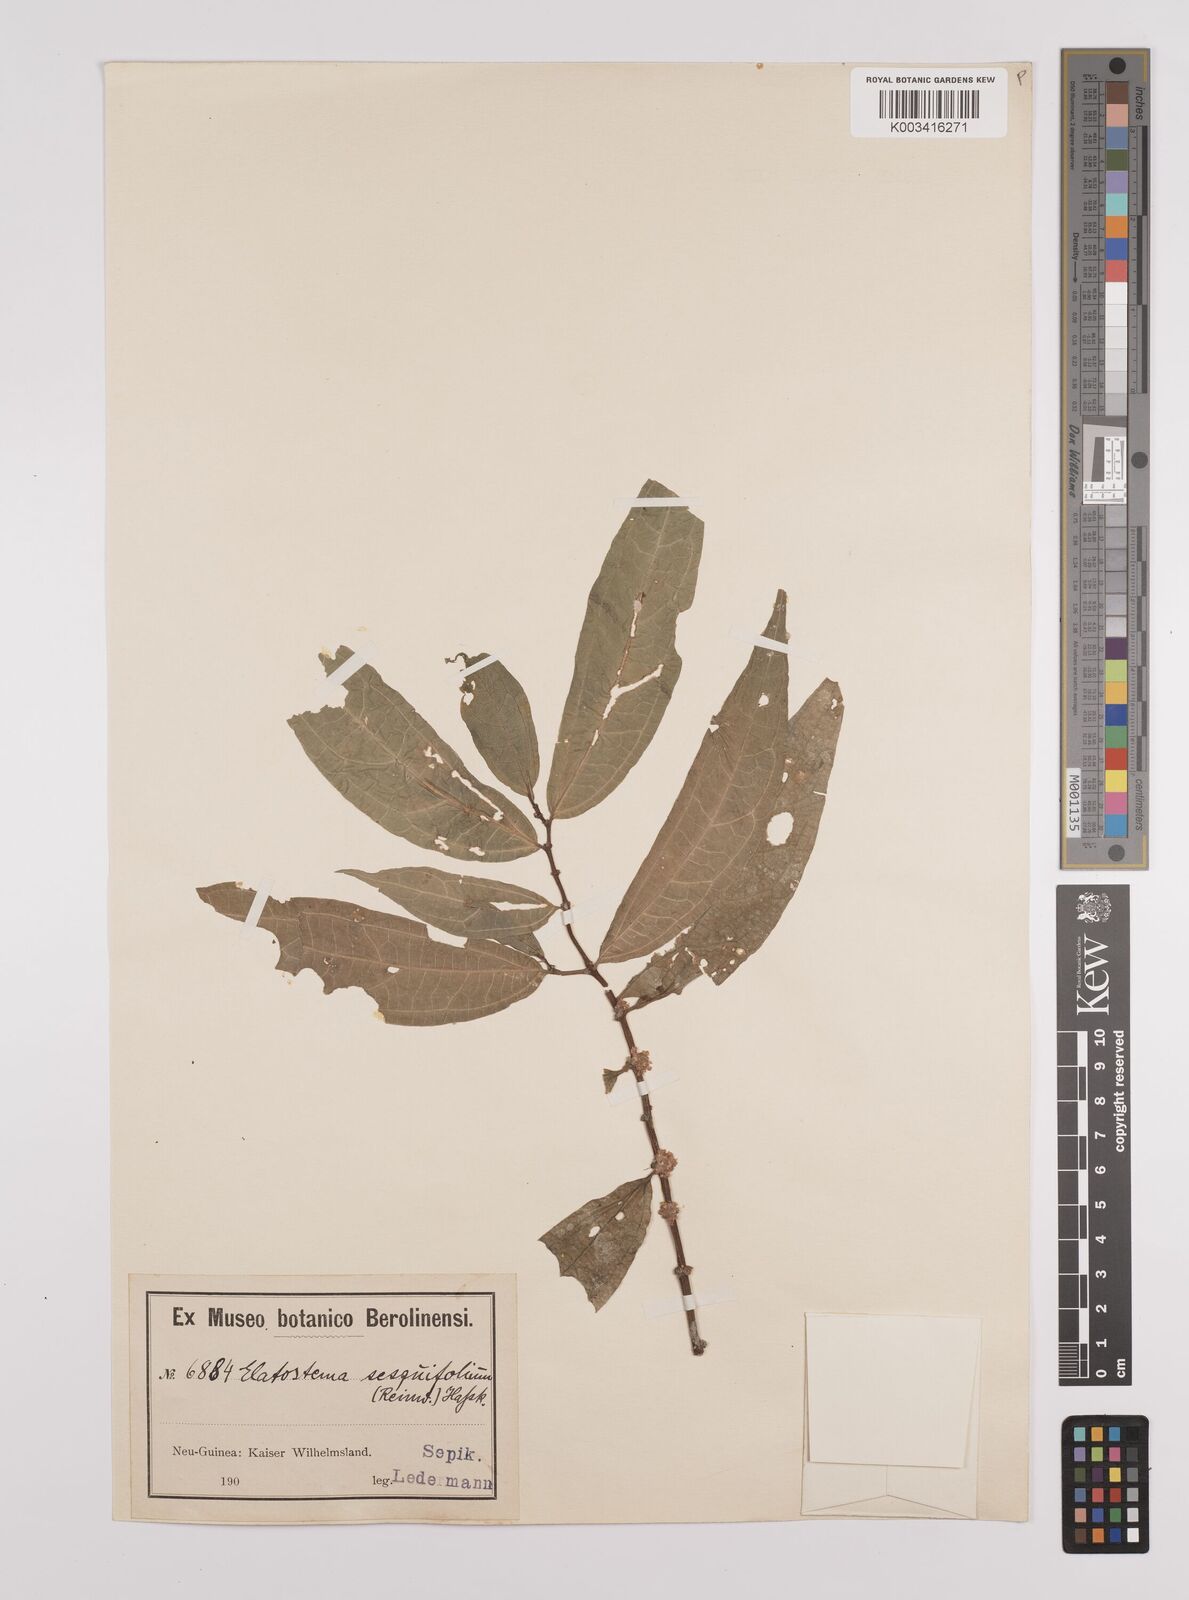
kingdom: Plantae
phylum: Tracheophyta
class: Magnoliopsida
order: Rosales
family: Urticaceae
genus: Elatostema
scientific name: Elatostema integrifolium
